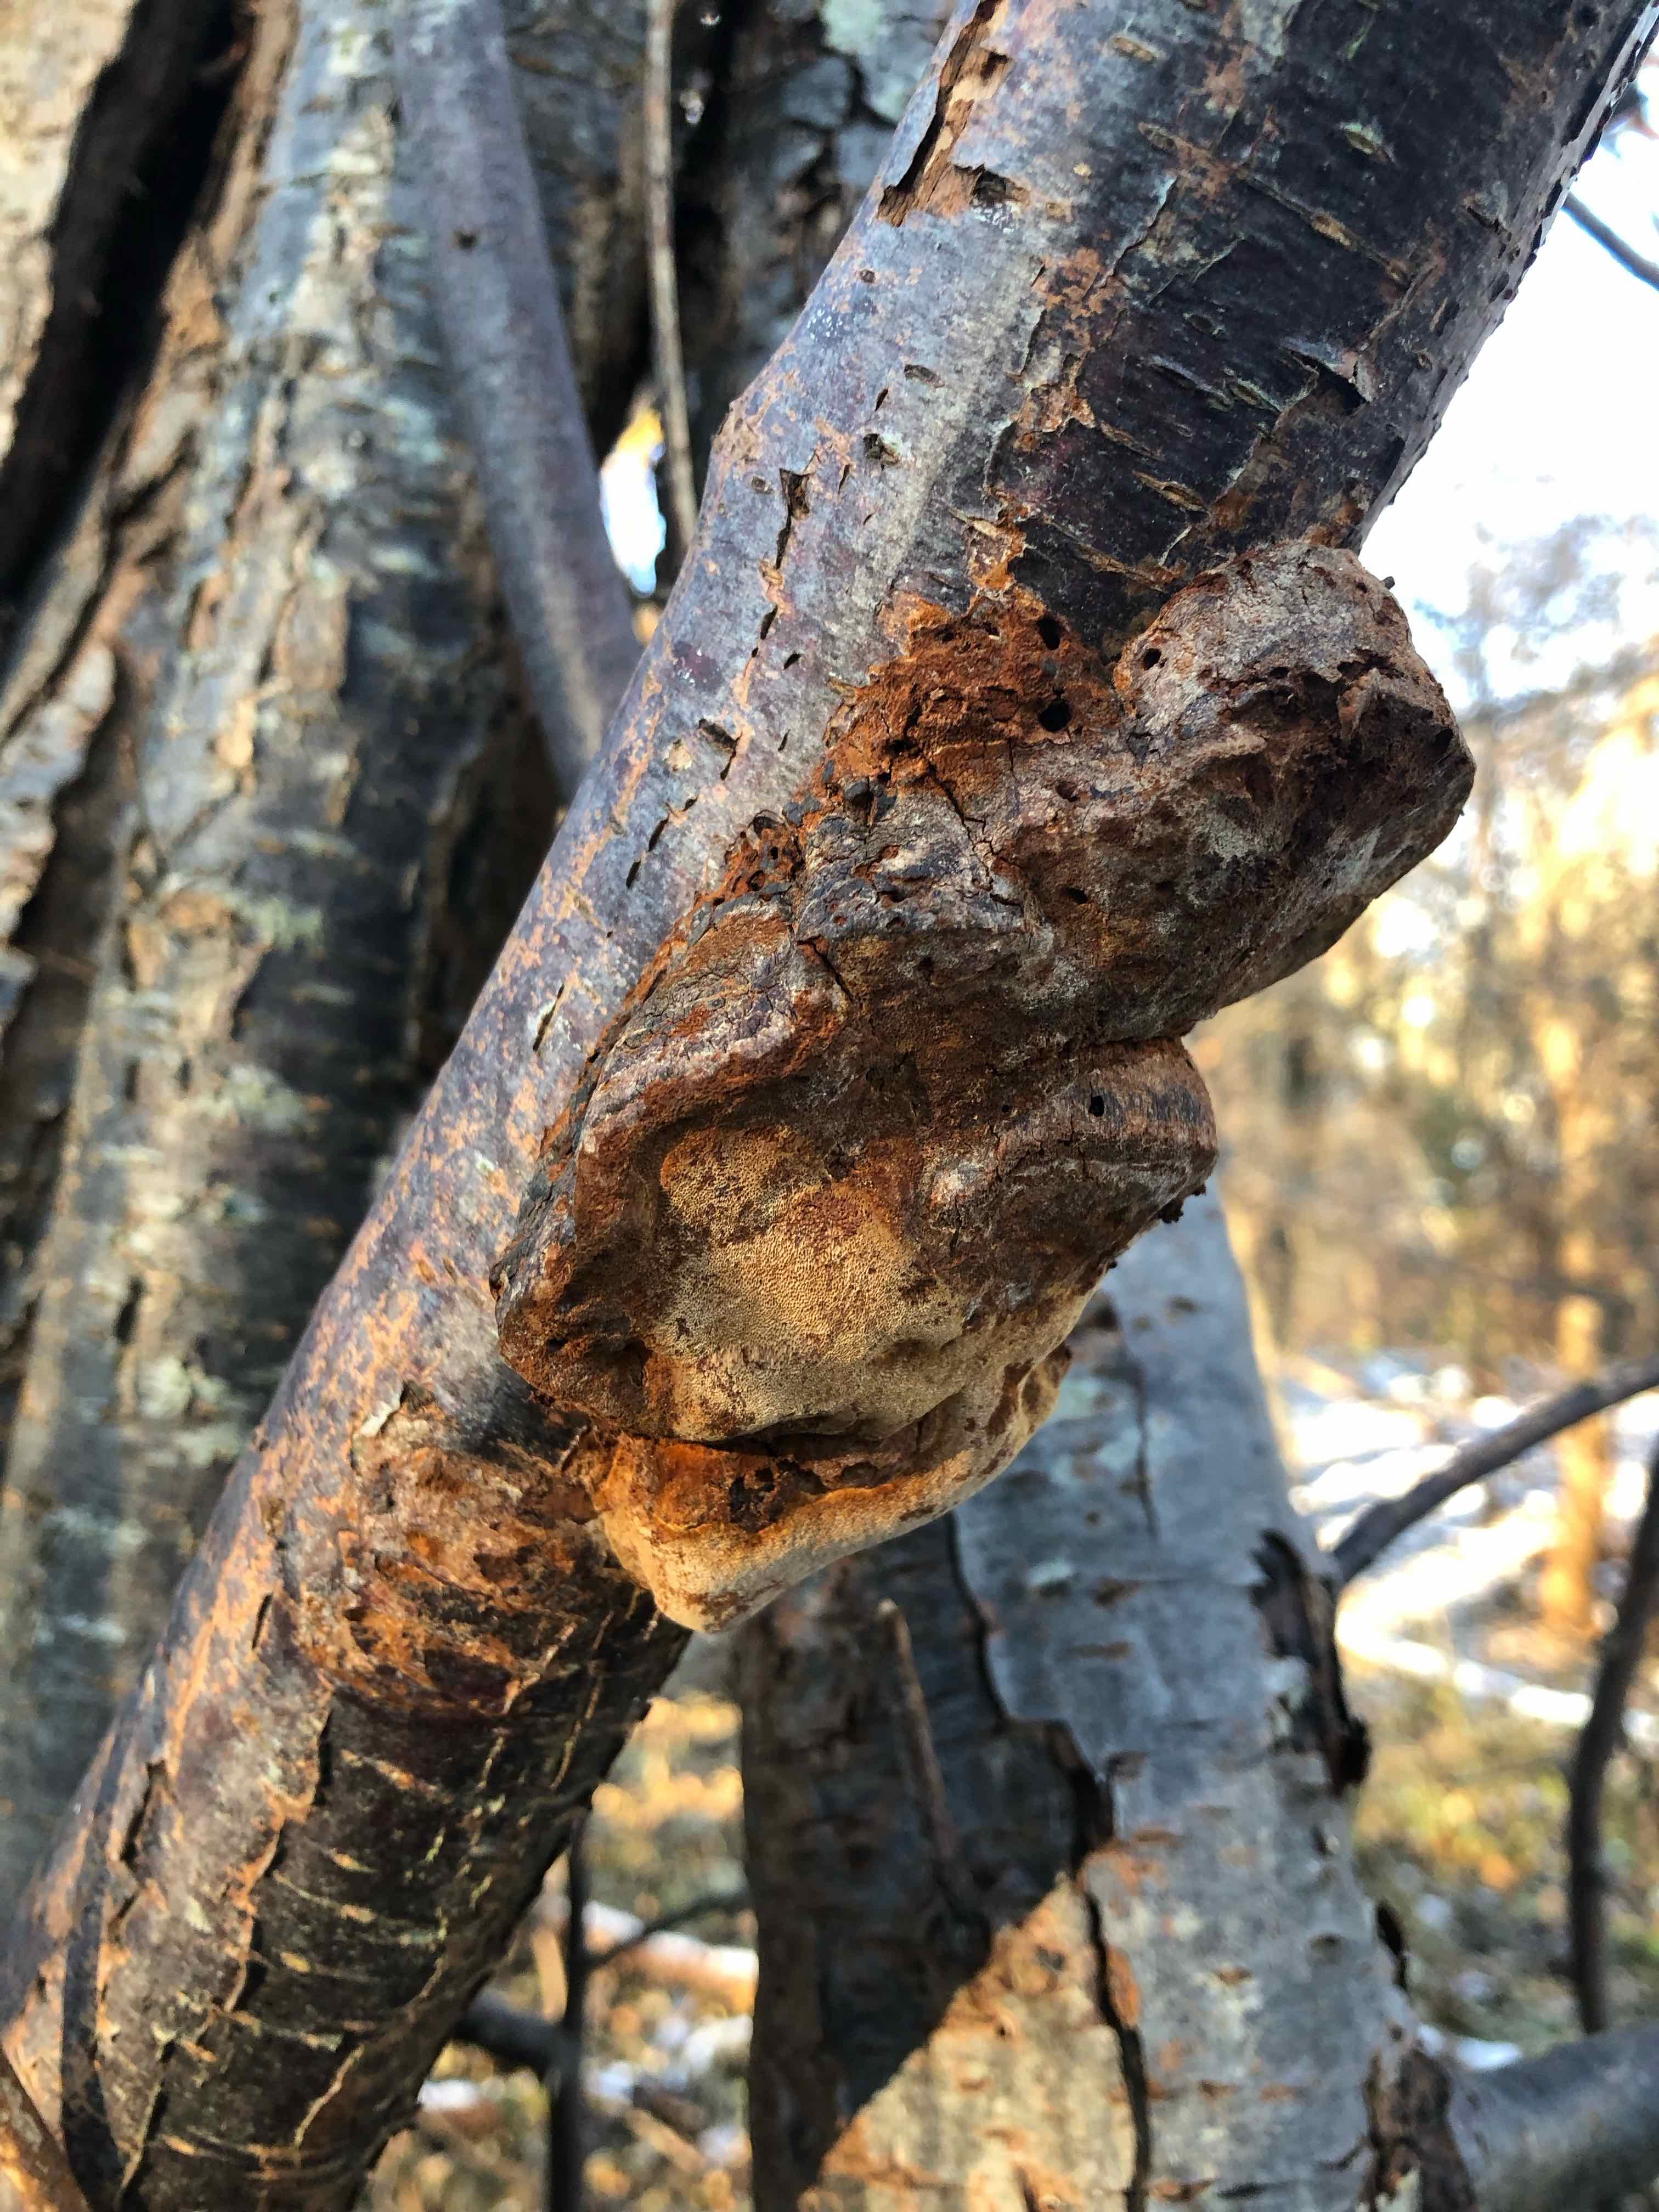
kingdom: Fungi
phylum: Basidiomycota
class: Agaricomycetes
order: Hymenochaetales
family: Hymenochaetaceae
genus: Phellinus
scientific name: Phellinus pomaceus
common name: blomme-ildporesvamp
